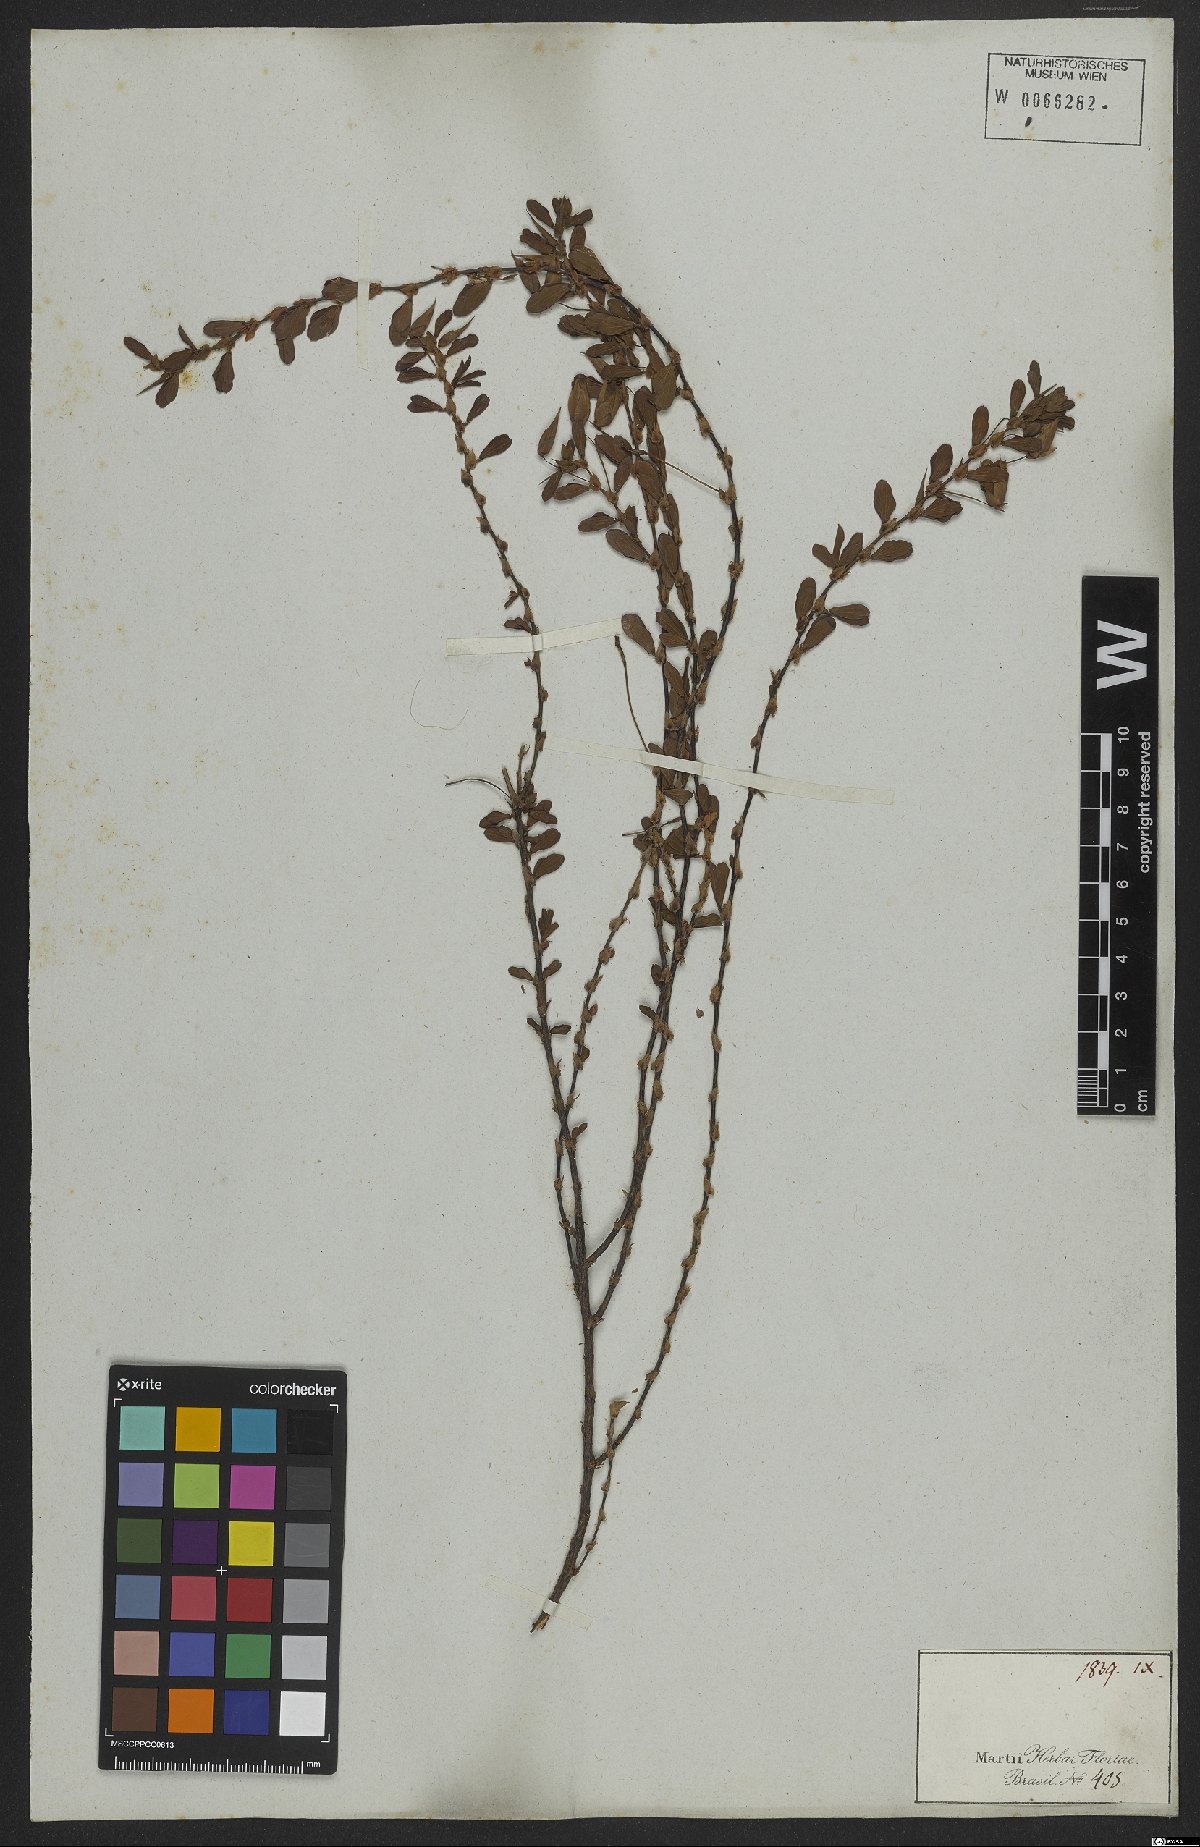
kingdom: Plantae
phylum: Tracheophyta
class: Magnoliopsida
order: Fabales
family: Fabaceae
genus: Senna
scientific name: Senna uniflora
